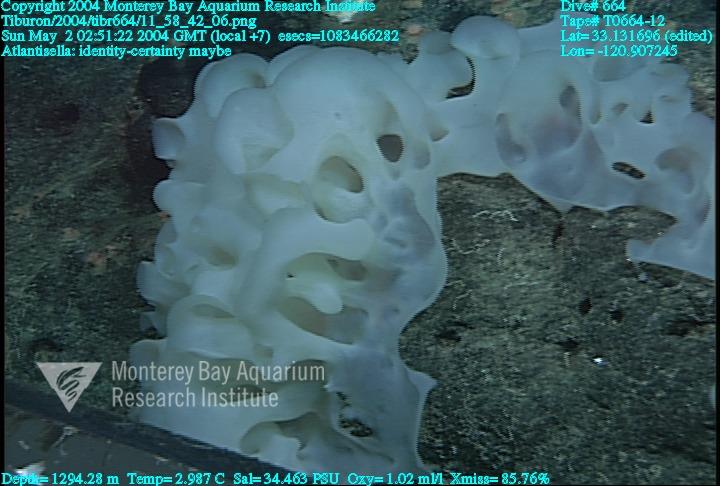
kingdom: Animalia
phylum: Porifera
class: Hexactinellida
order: Lyssacinosida
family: Euplectellidae
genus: Atlantisella
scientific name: Atlantisella
